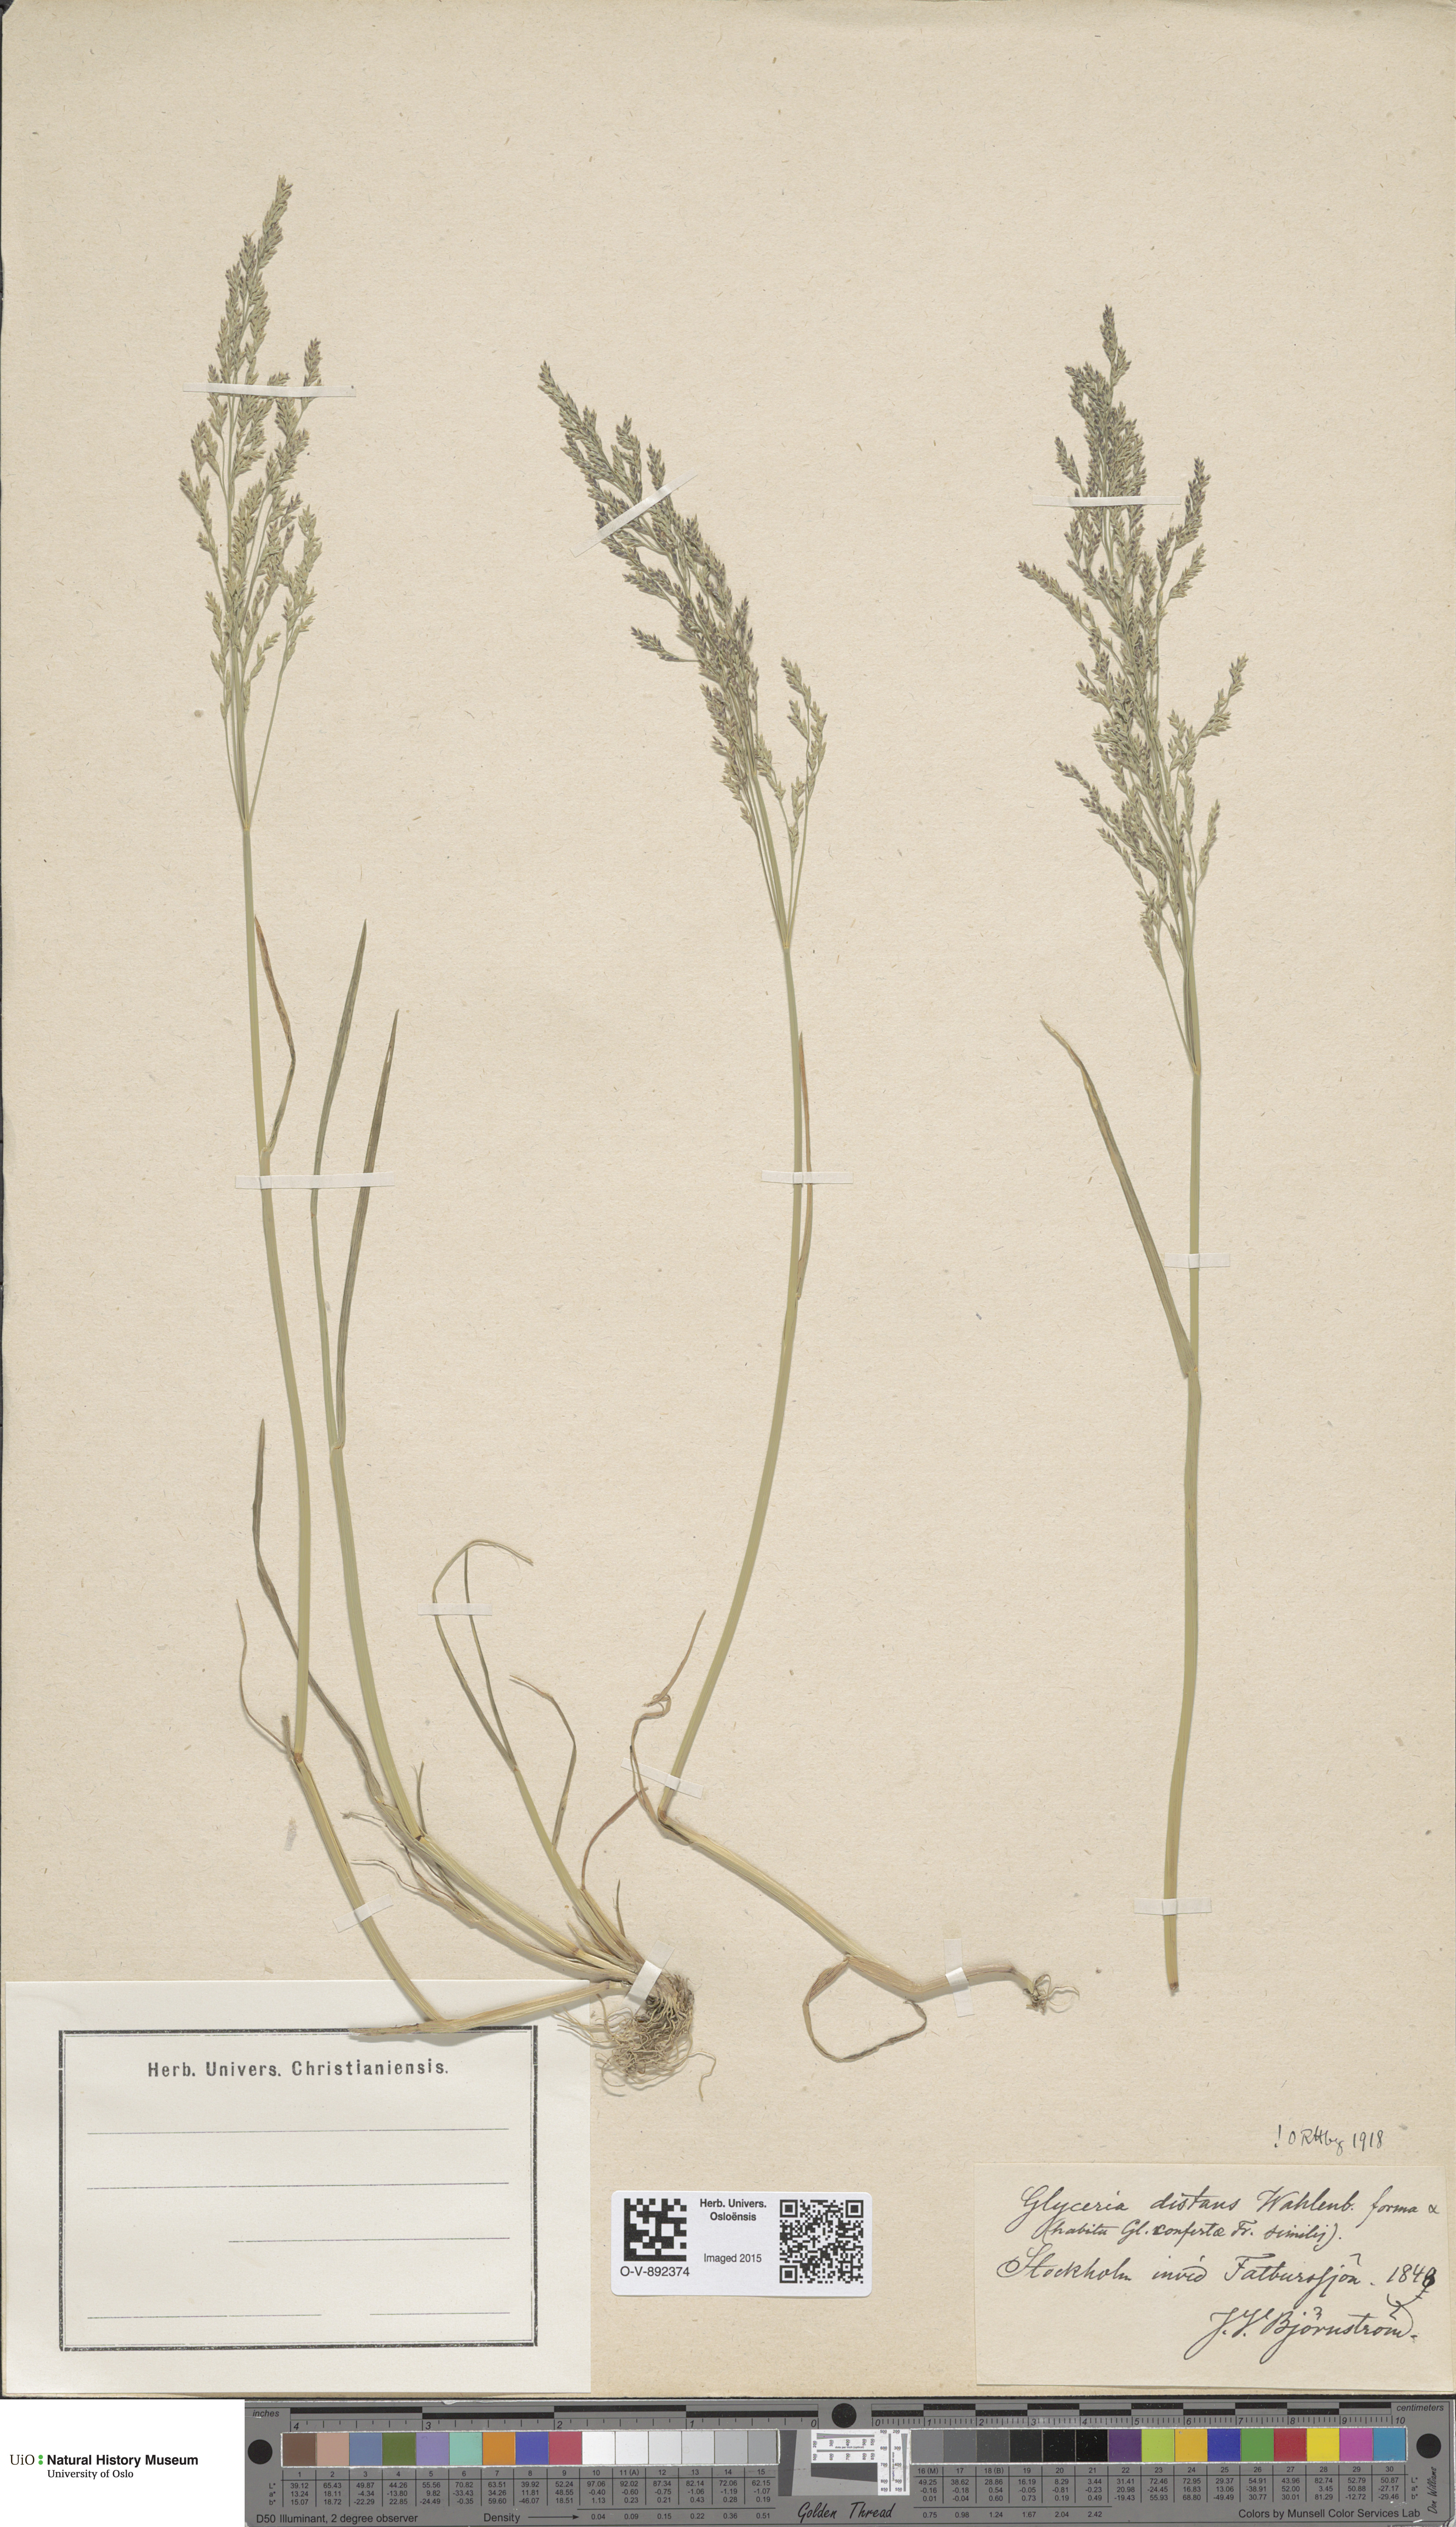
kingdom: Plantae
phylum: Tracheophyta
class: Liliopsida
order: Poales
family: Poaceae
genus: Puccinellia
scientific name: Puccinellia distans
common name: Weeping alkaligrass
